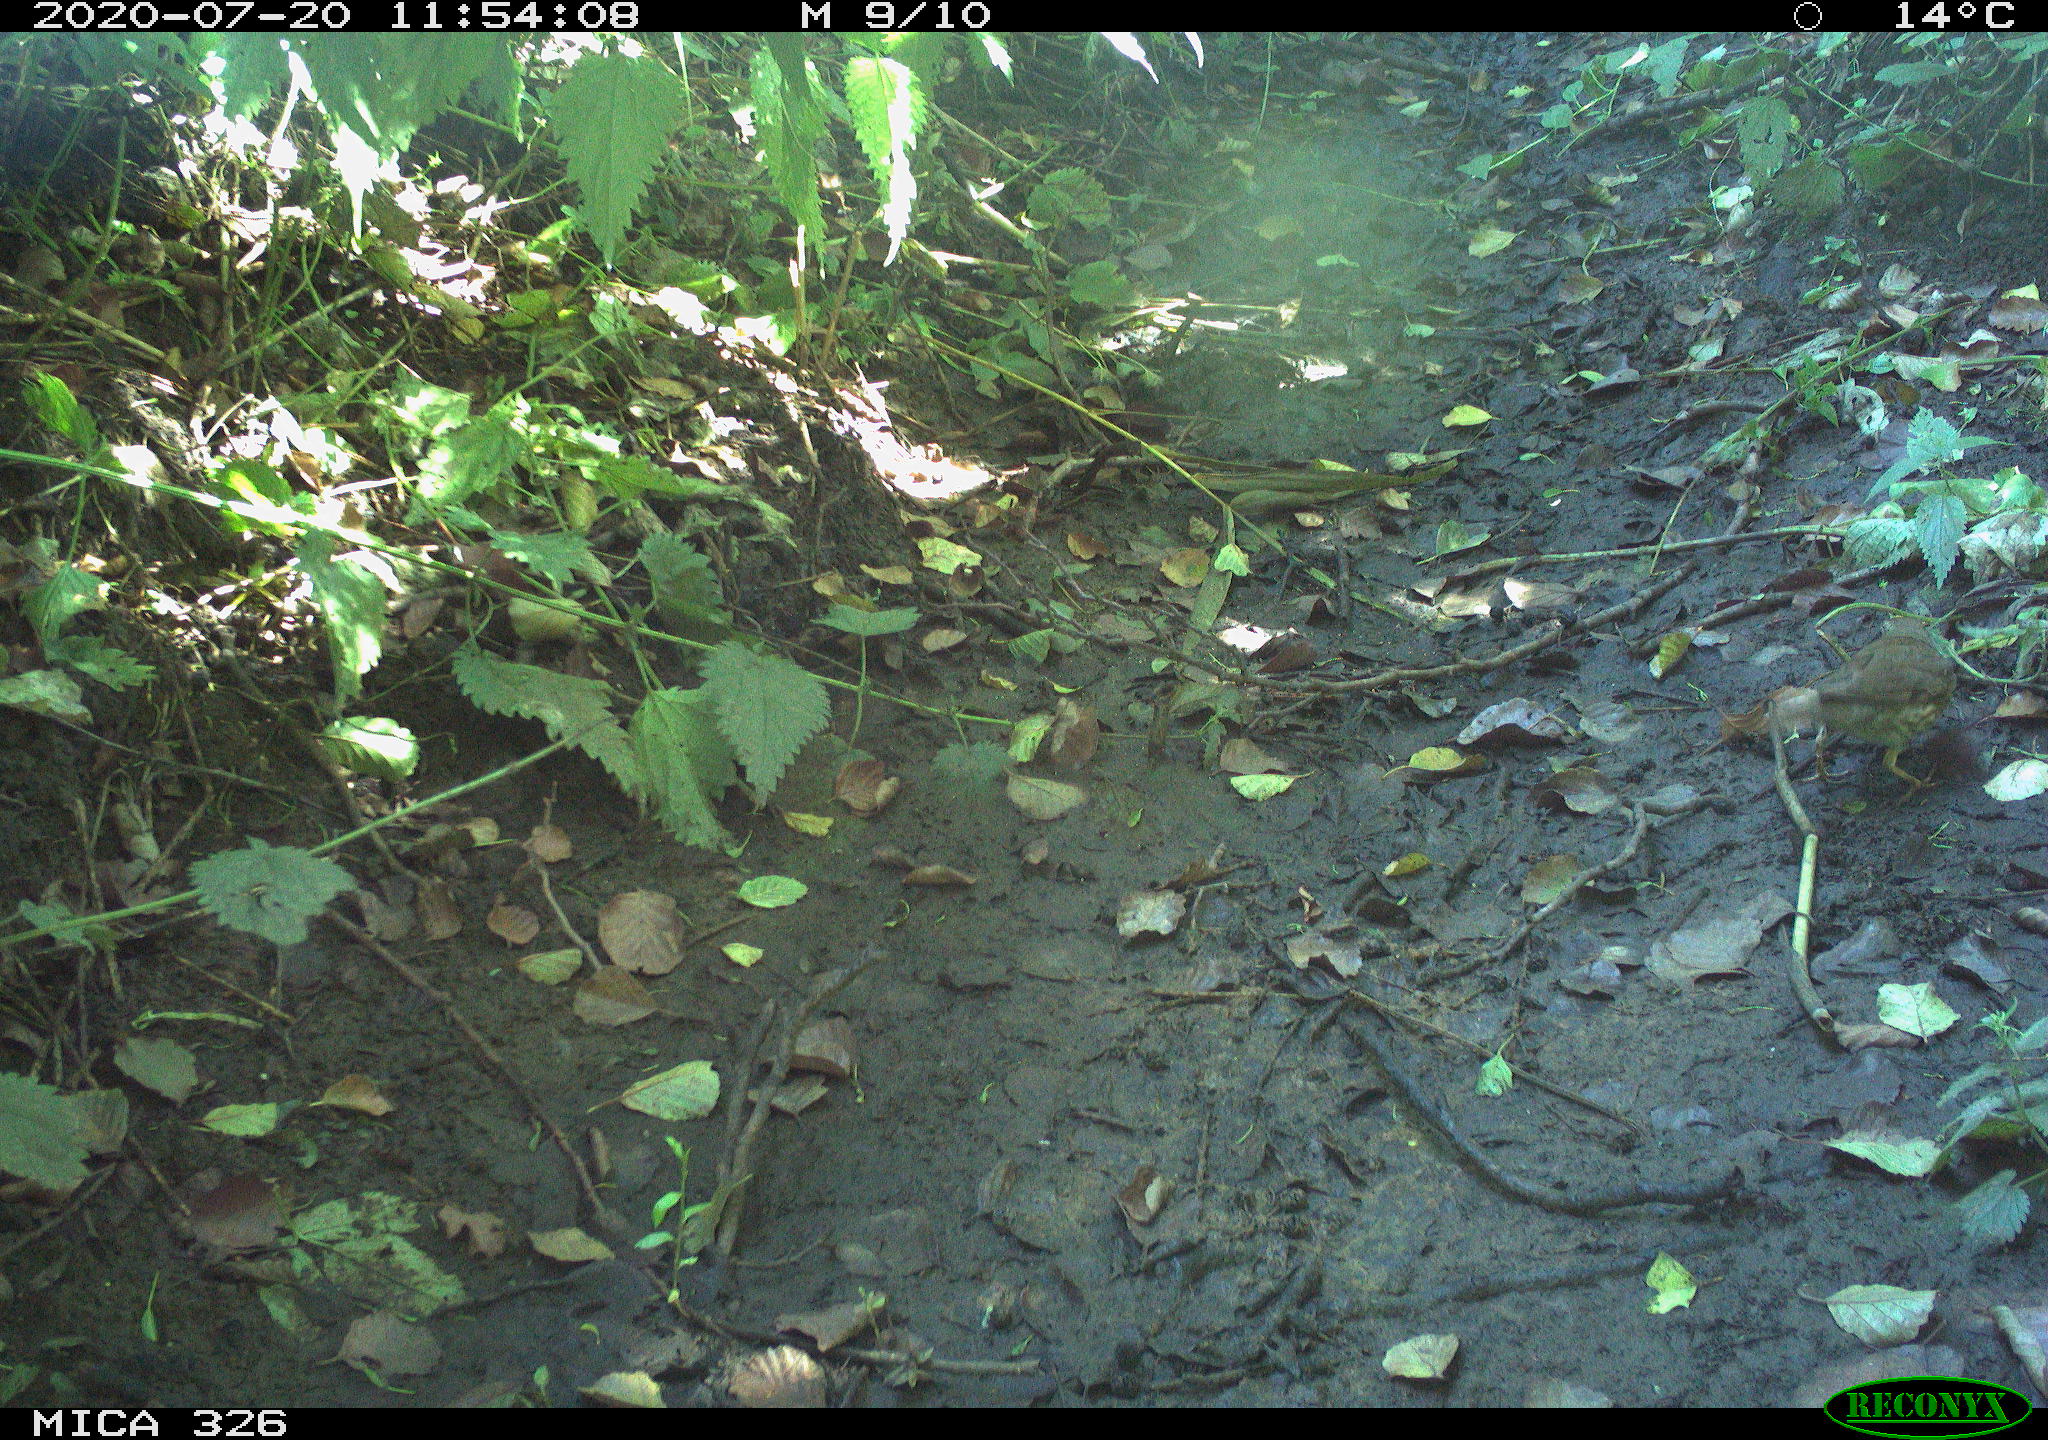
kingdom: Animalia
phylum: Chordata
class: Aves
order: Passeriformes
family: Turdidae
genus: Turdus
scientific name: Turdus philomelos
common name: Song thrush
